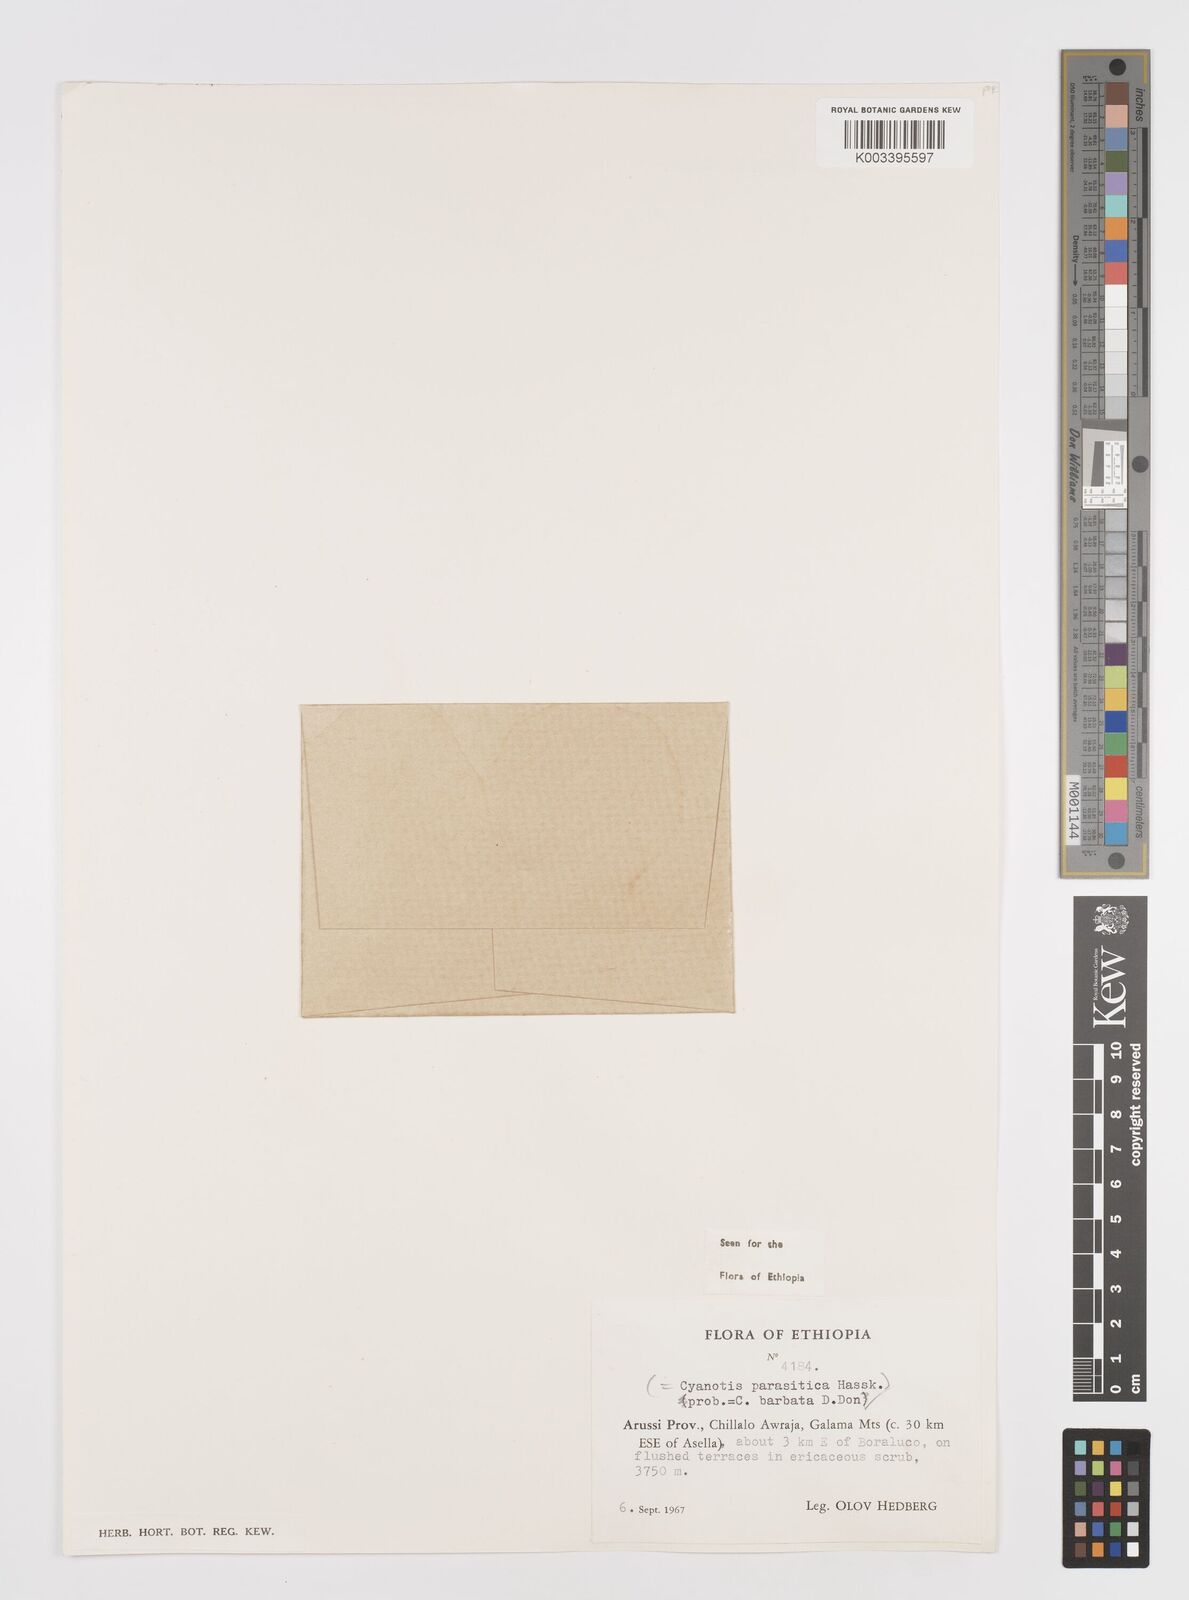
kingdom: Plantae
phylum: Tracheophyta
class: Liliopsida
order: Commelinales
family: Commelinaceae
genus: Cyanotis
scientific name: Cyanotis vaga
